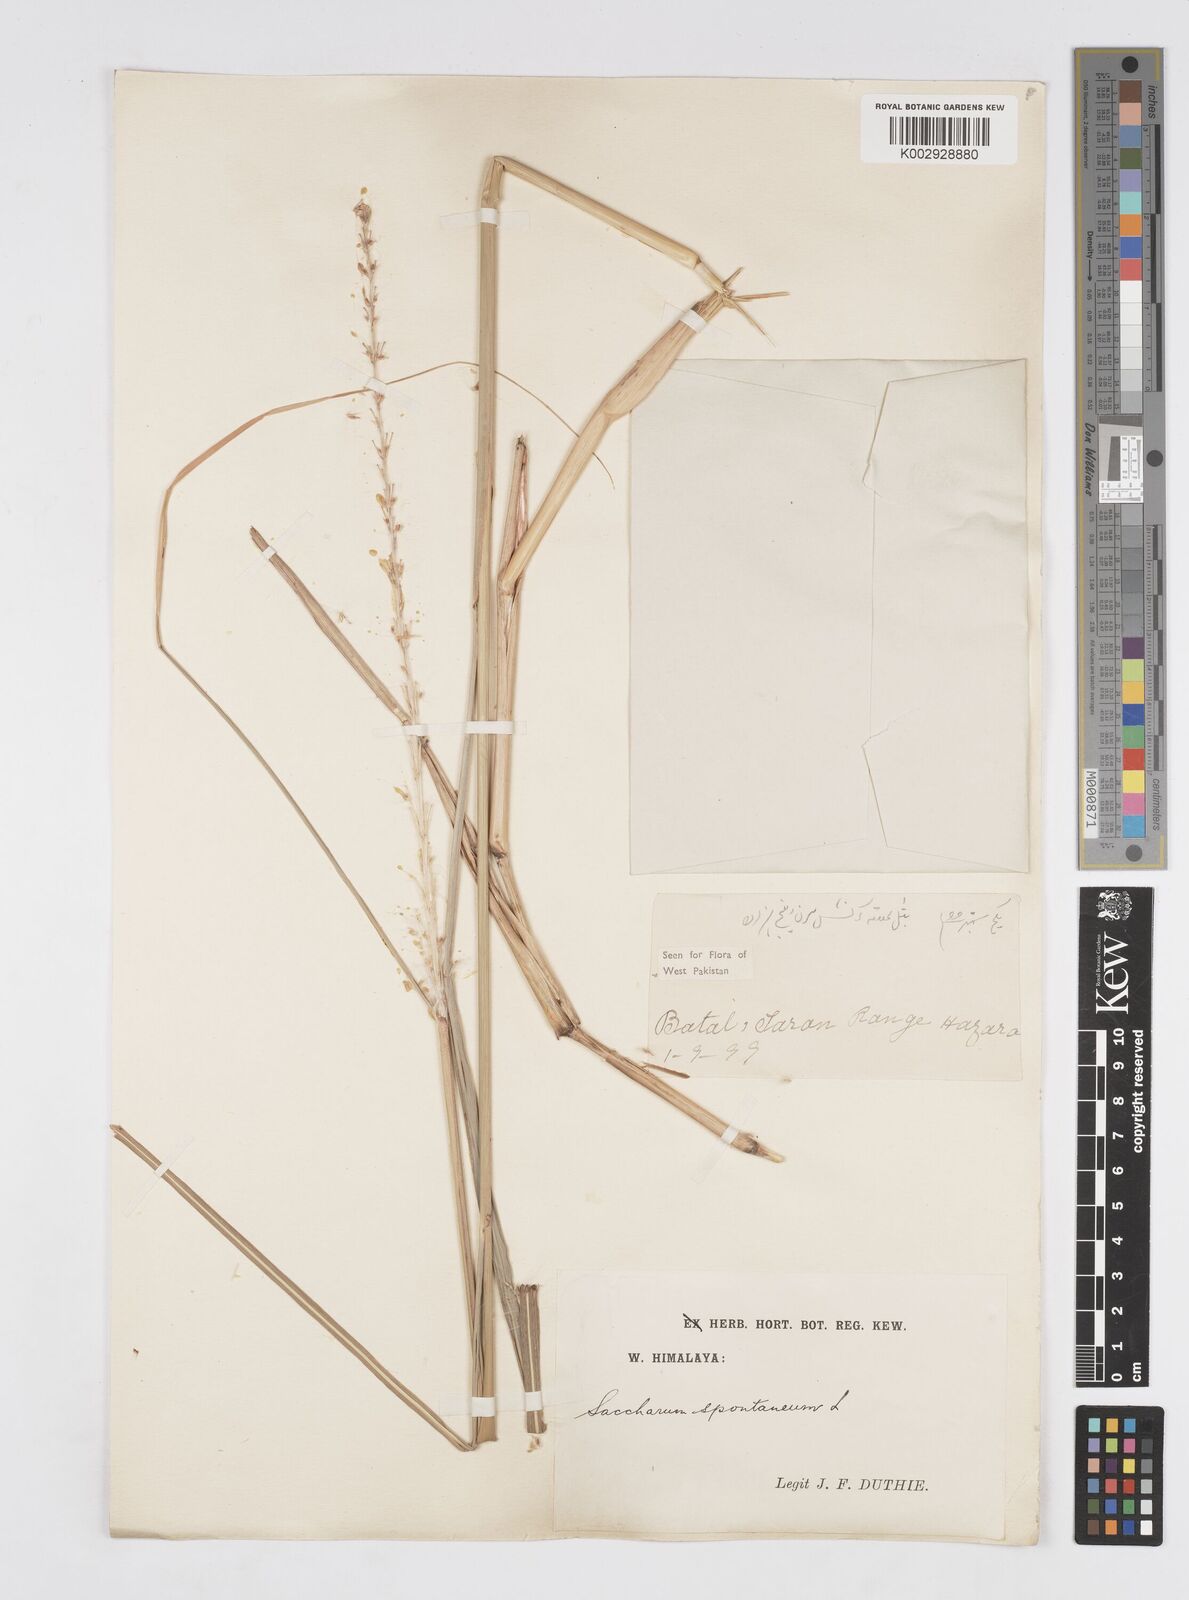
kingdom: Plantae
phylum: Tracheophyta
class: Liliopsida
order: Poales
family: Poaceae
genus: Saccharum
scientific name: Saccharum spontaneum
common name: Wild sugarcane
